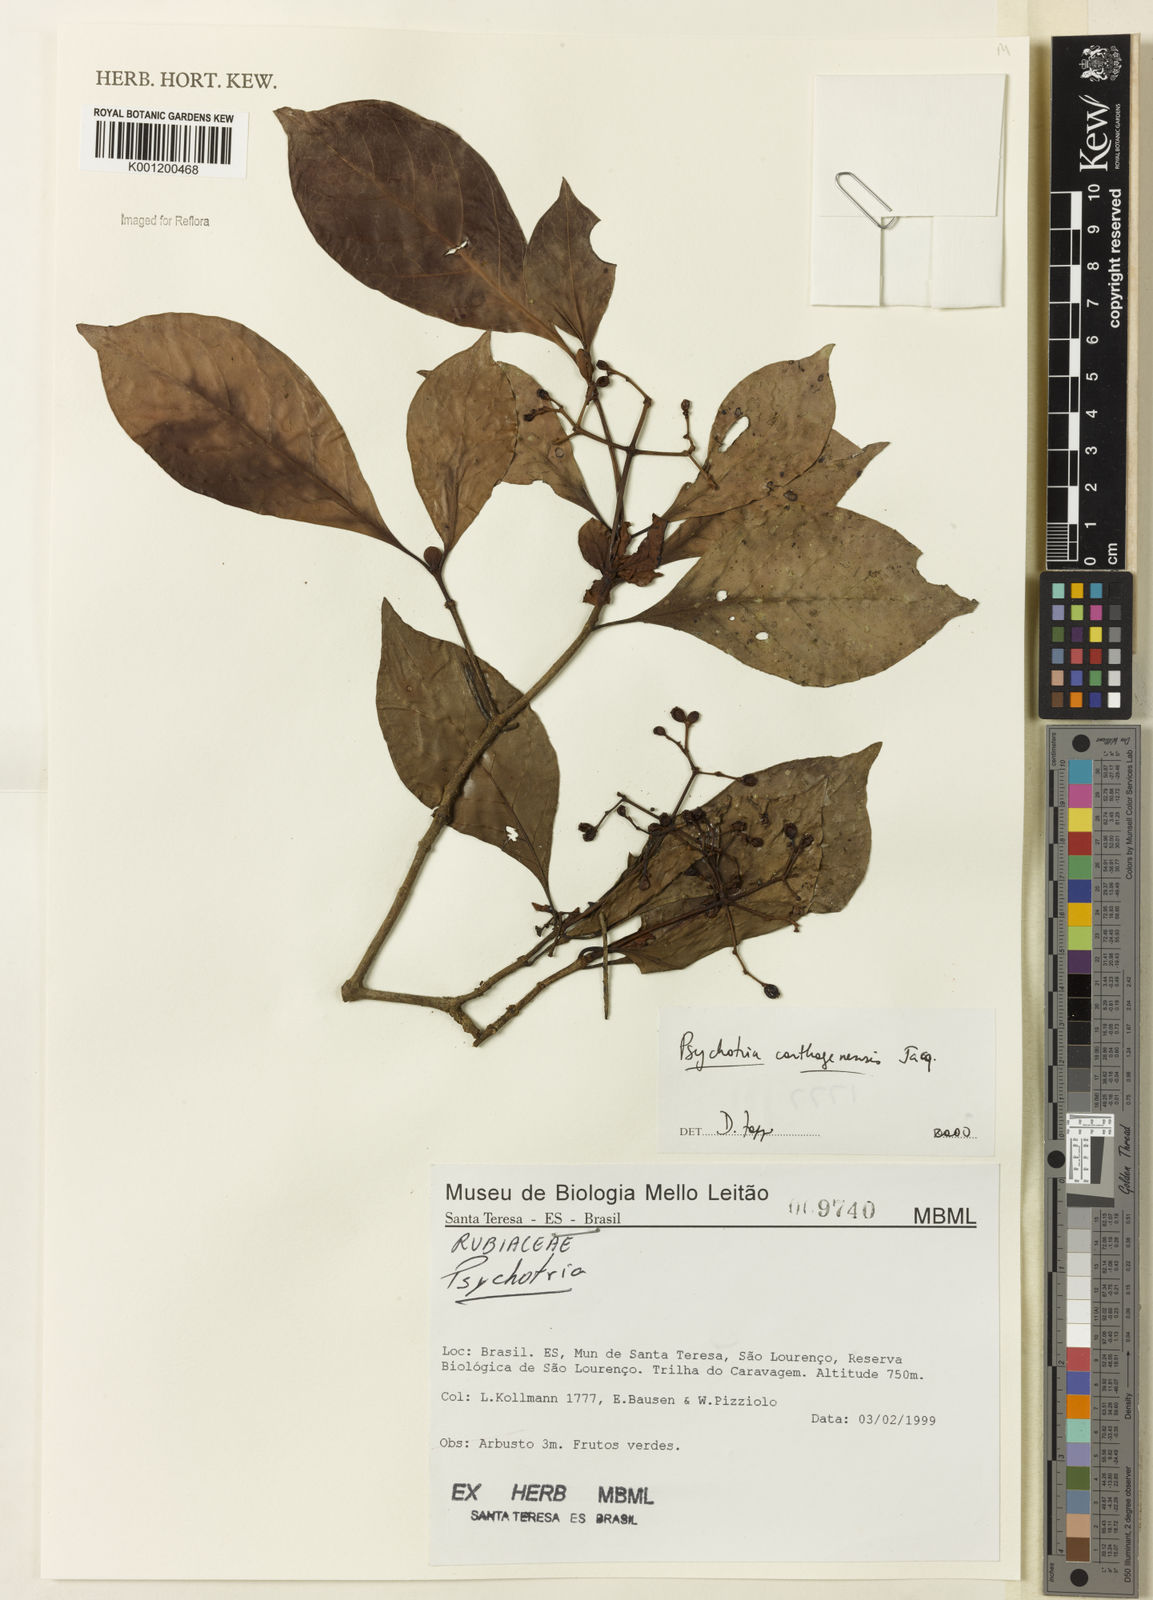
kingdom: Plantae
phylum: Tracheophyta
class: Magnoliopsida
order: Gentianales
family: Rubiaceae
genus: Psychotria
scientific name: Psychotria carthagenensis
